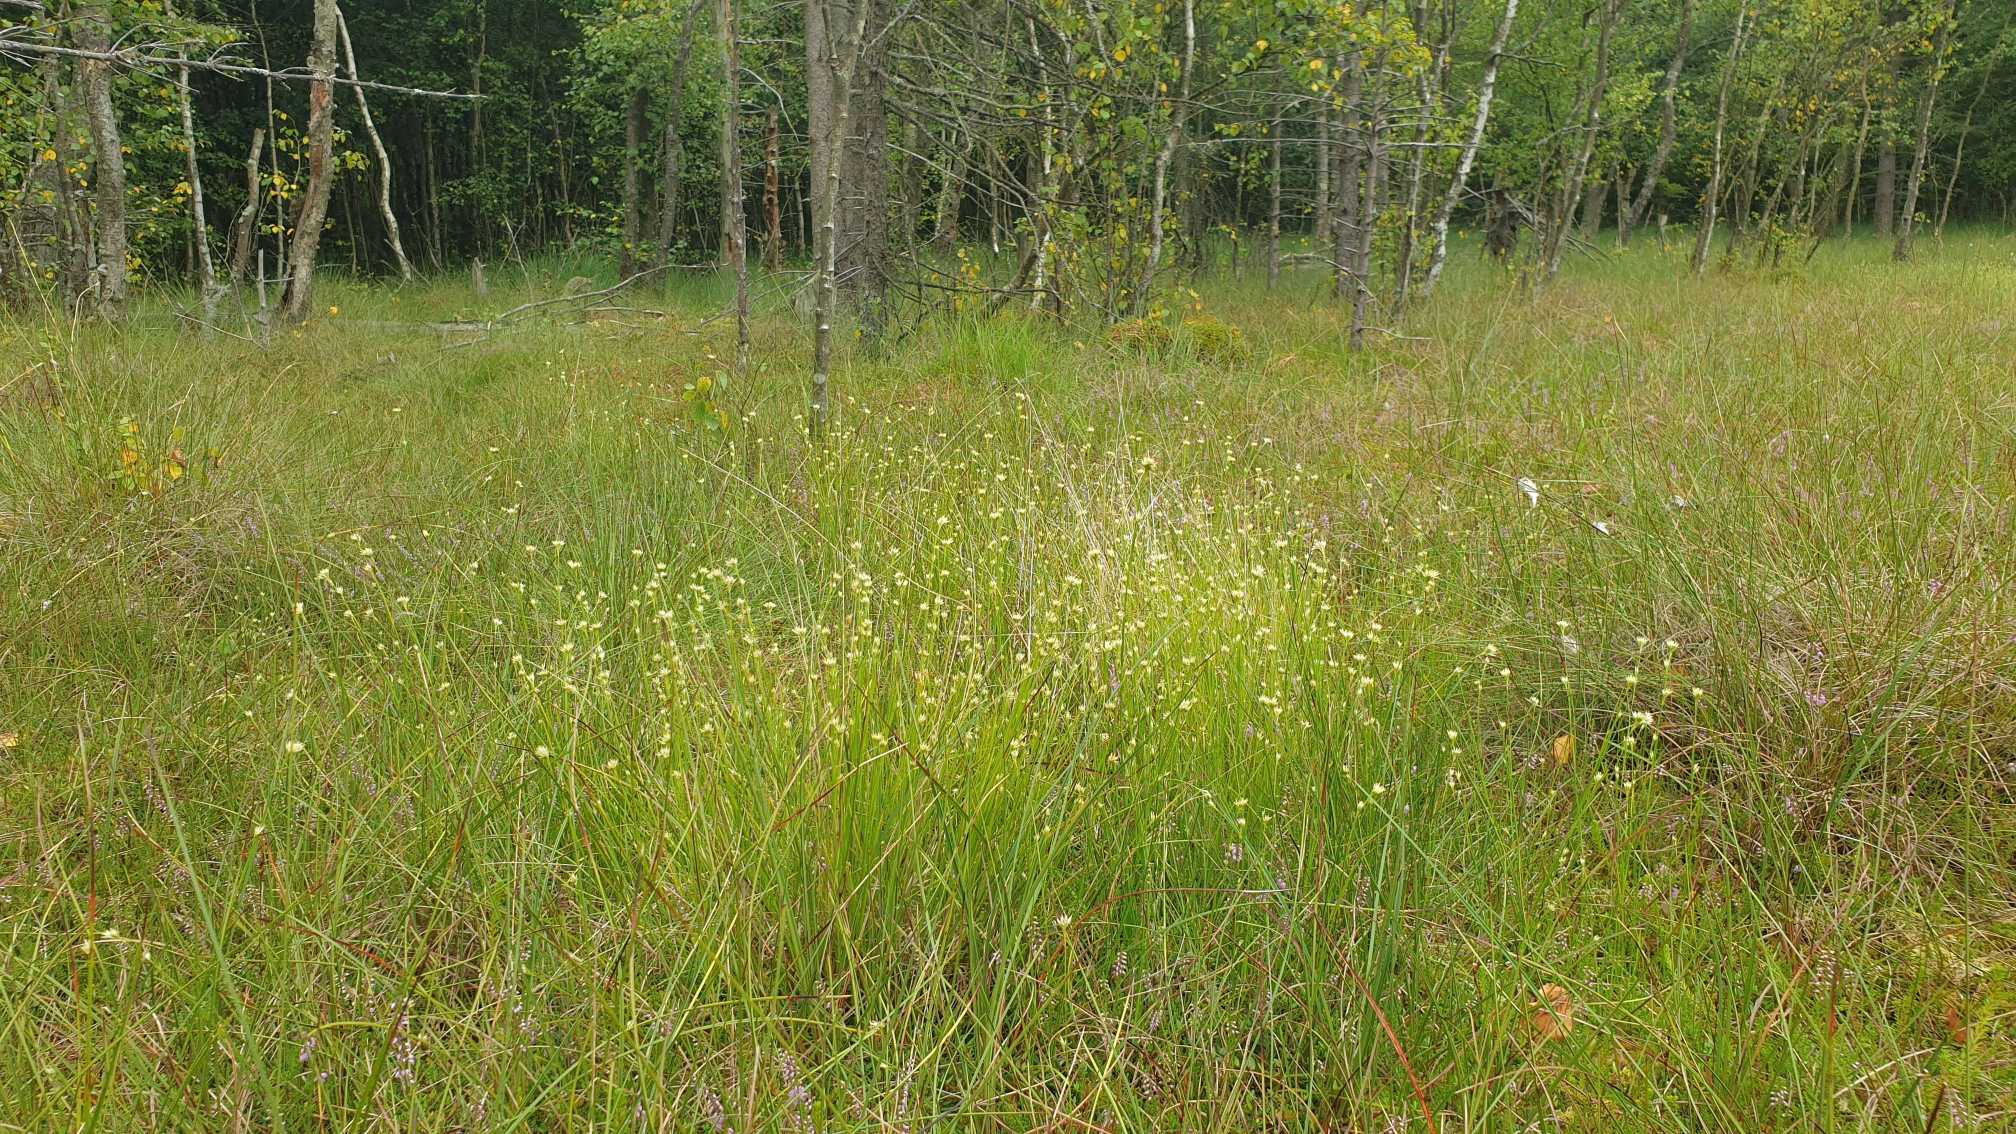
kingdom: Plantae
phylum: Tracheophyta
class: Liliopsida
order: Poales
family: Cyperaceae
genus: Rhynchospora
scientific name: Rhynchospora alba
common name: Hvid næbfrø
